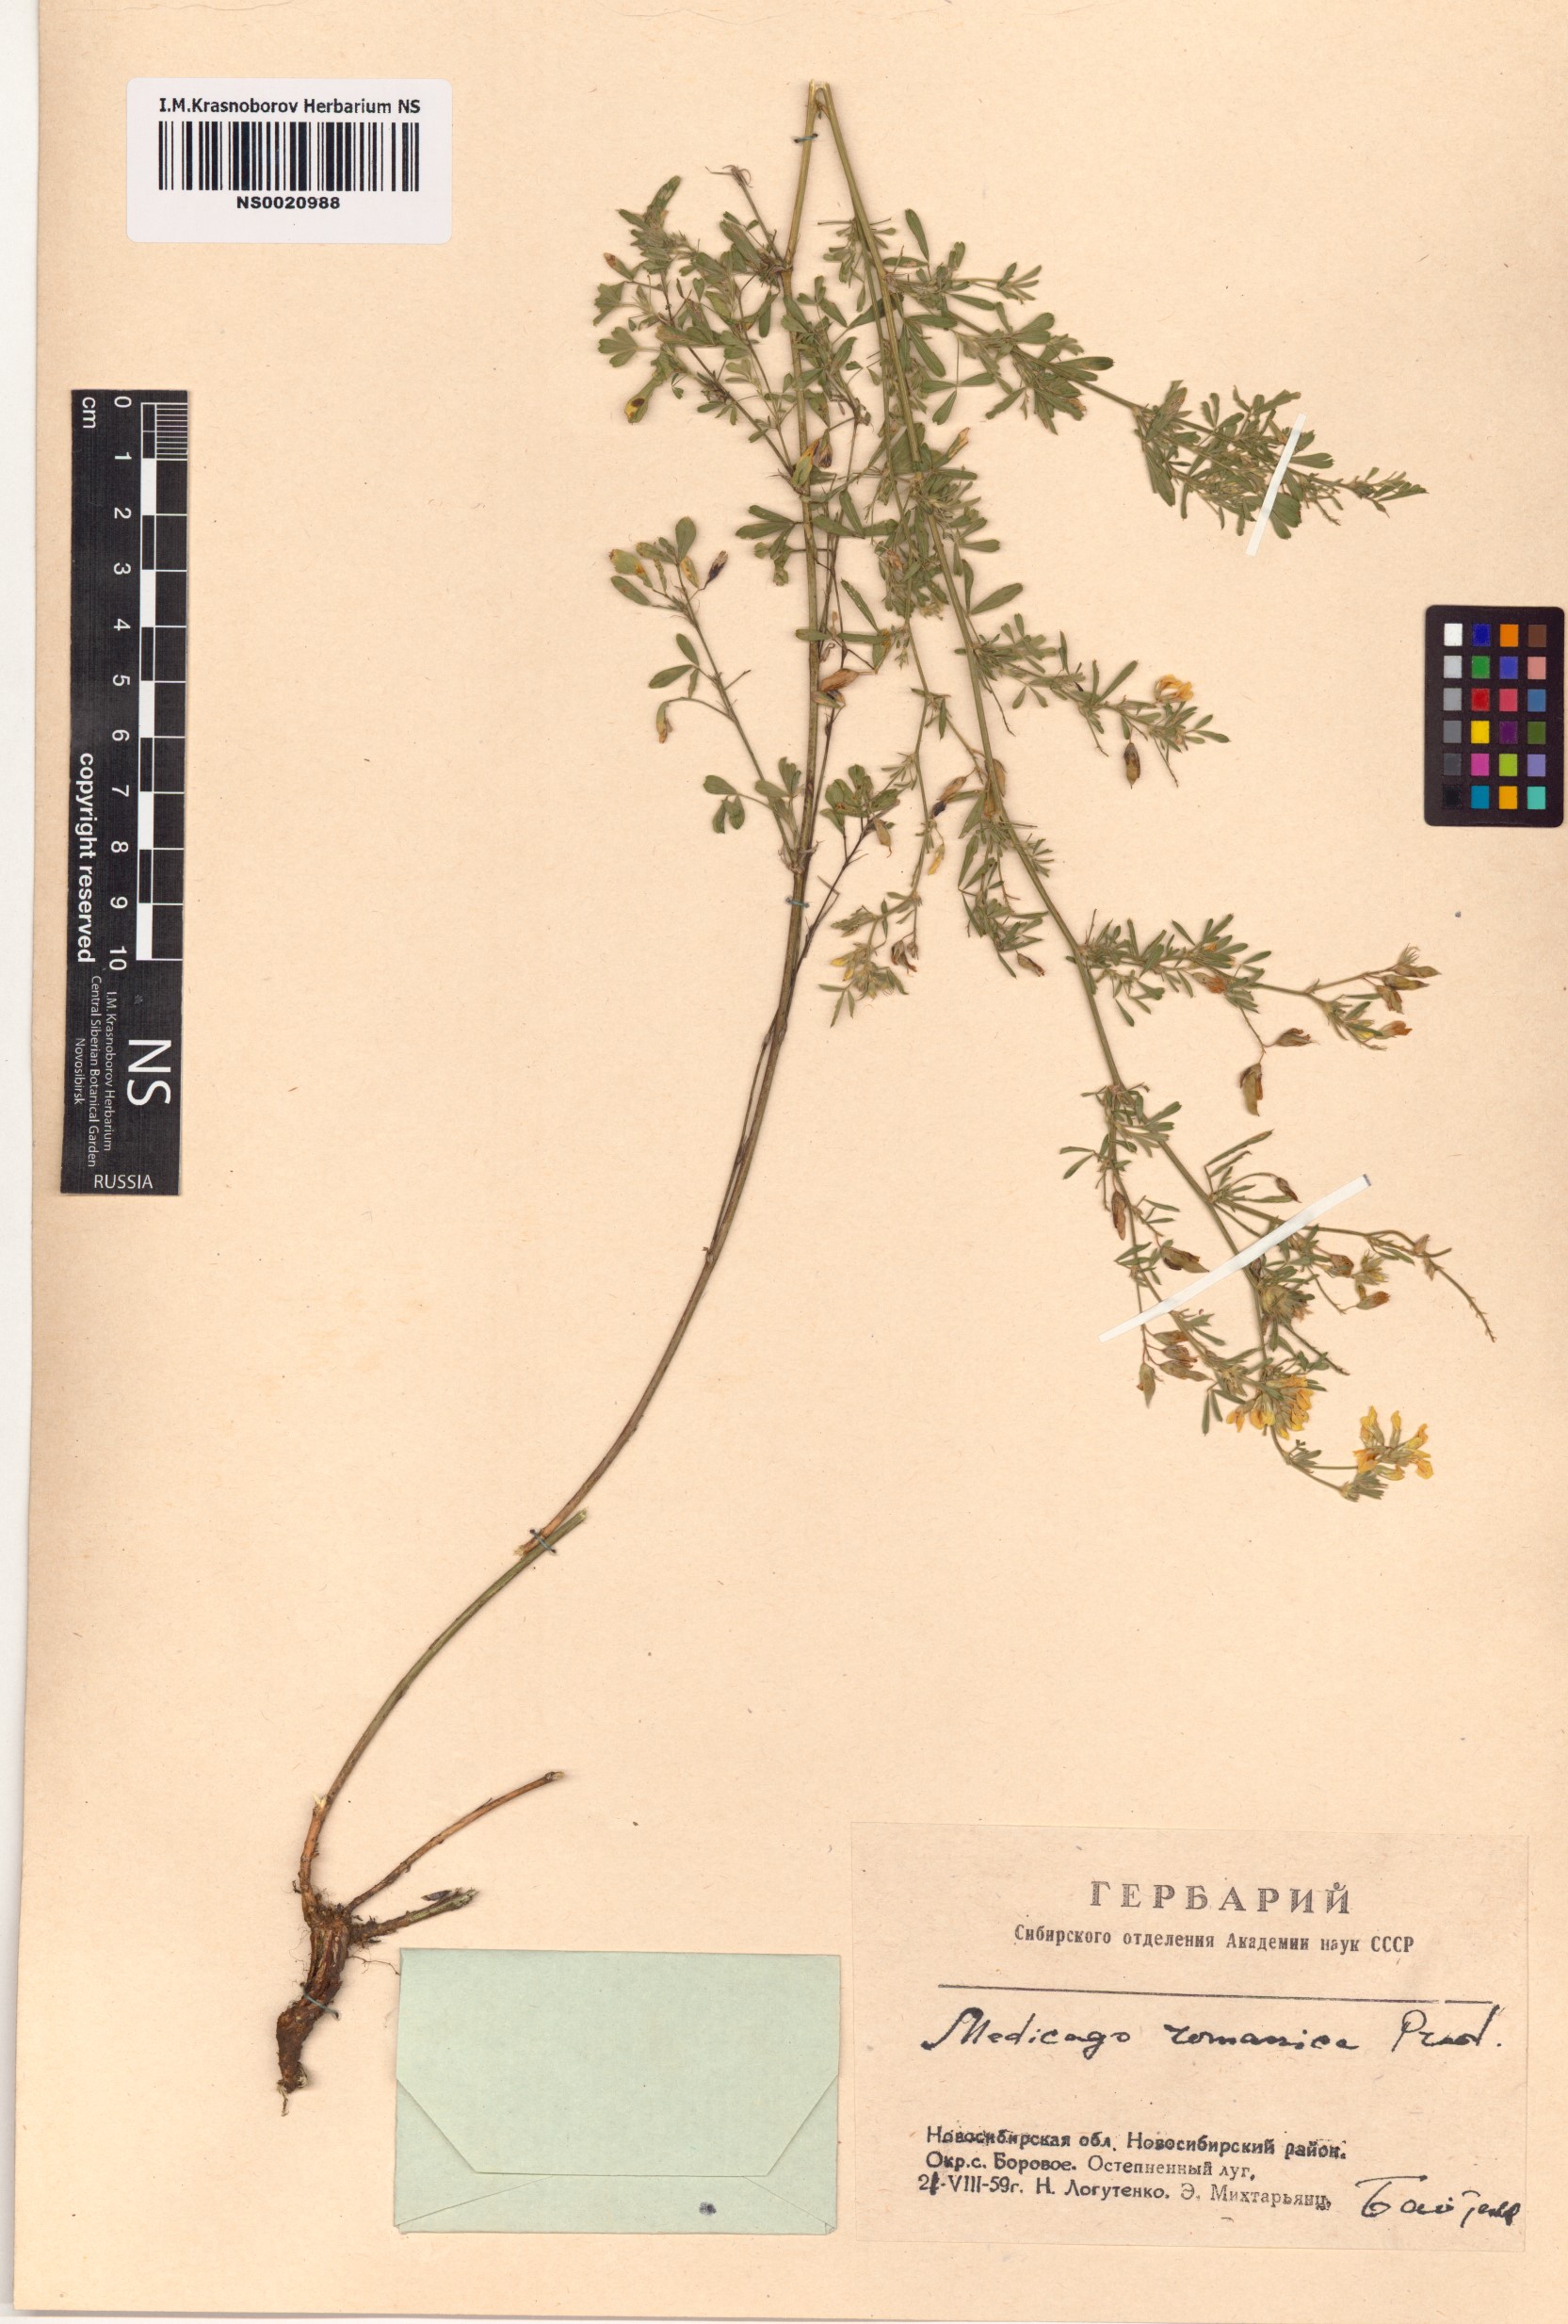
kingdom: Plantae
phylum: Tracheophyta
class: Magnoliopsida
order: Fabales
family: Fabaceae
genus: Medicago
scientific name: Medicago falcata
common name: Sickle medick
